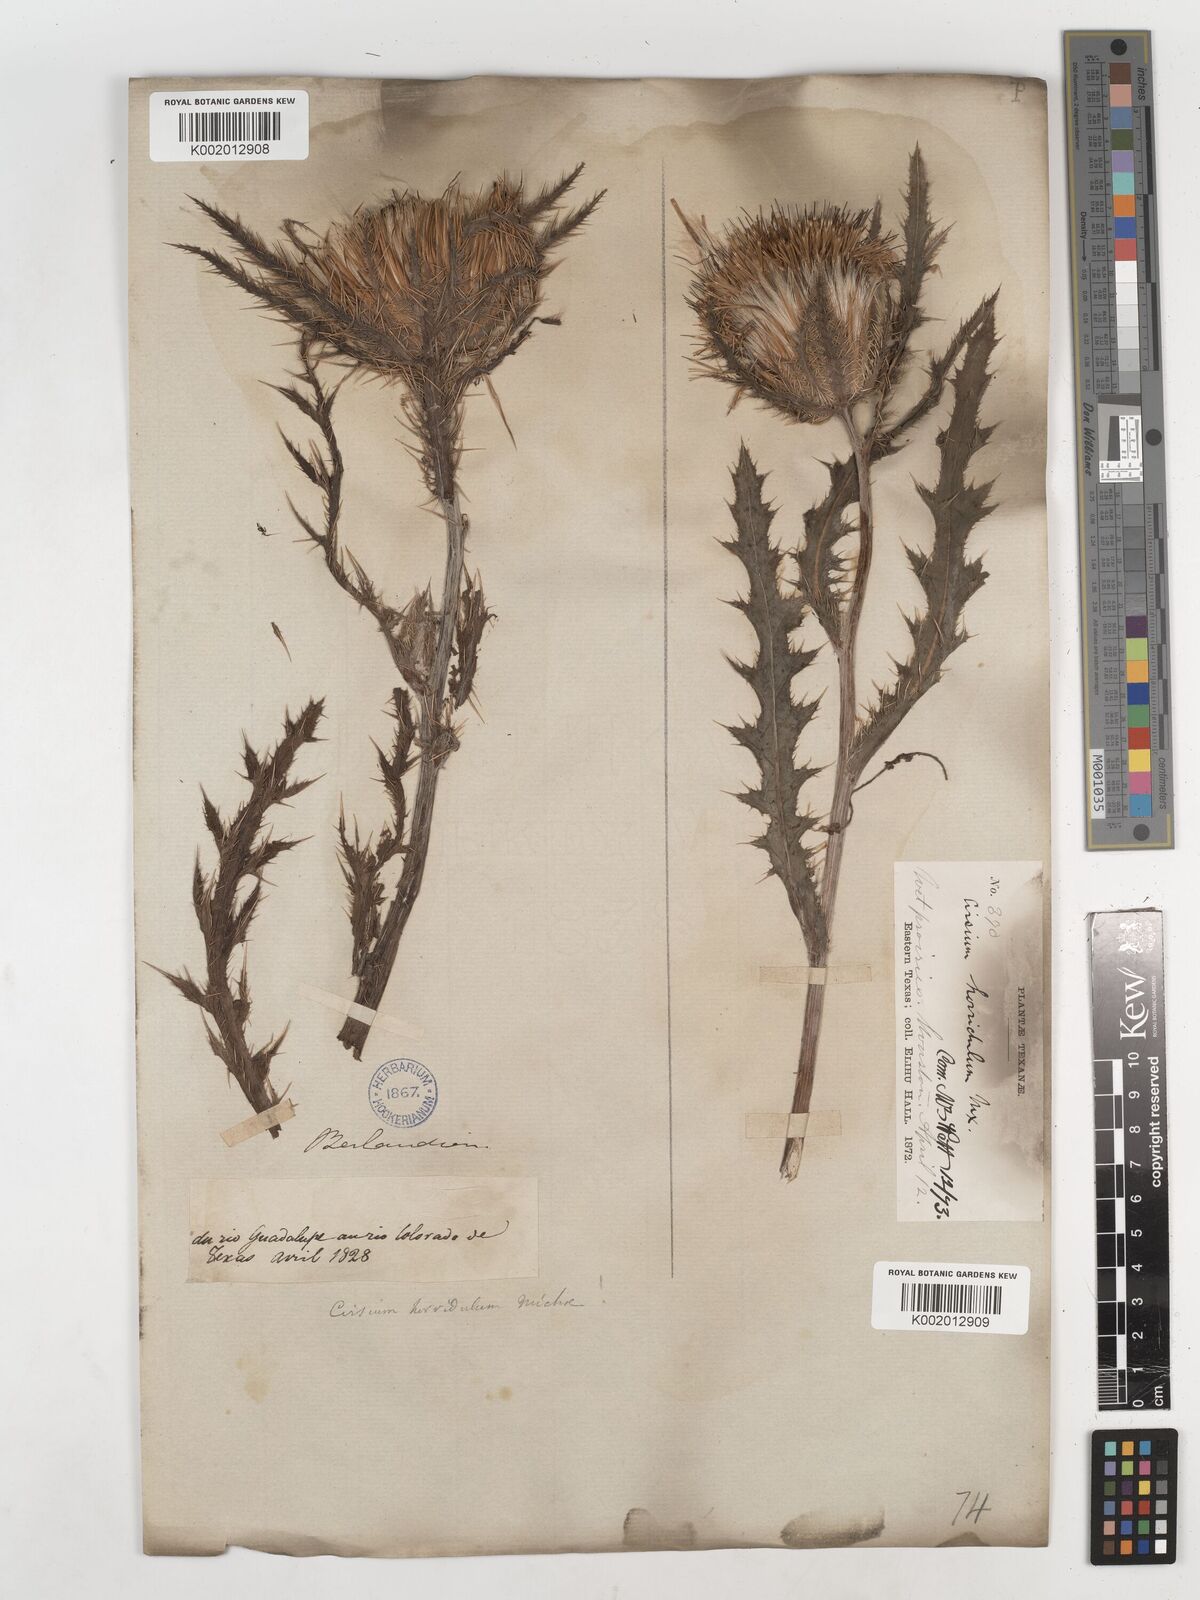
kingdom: Plantae
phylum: Tracheophyta
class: Magnoliopsida
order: Asterales
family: Asteraceae
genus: Cirsium
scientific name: Cirsium horridulum
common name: Bristly thistle
